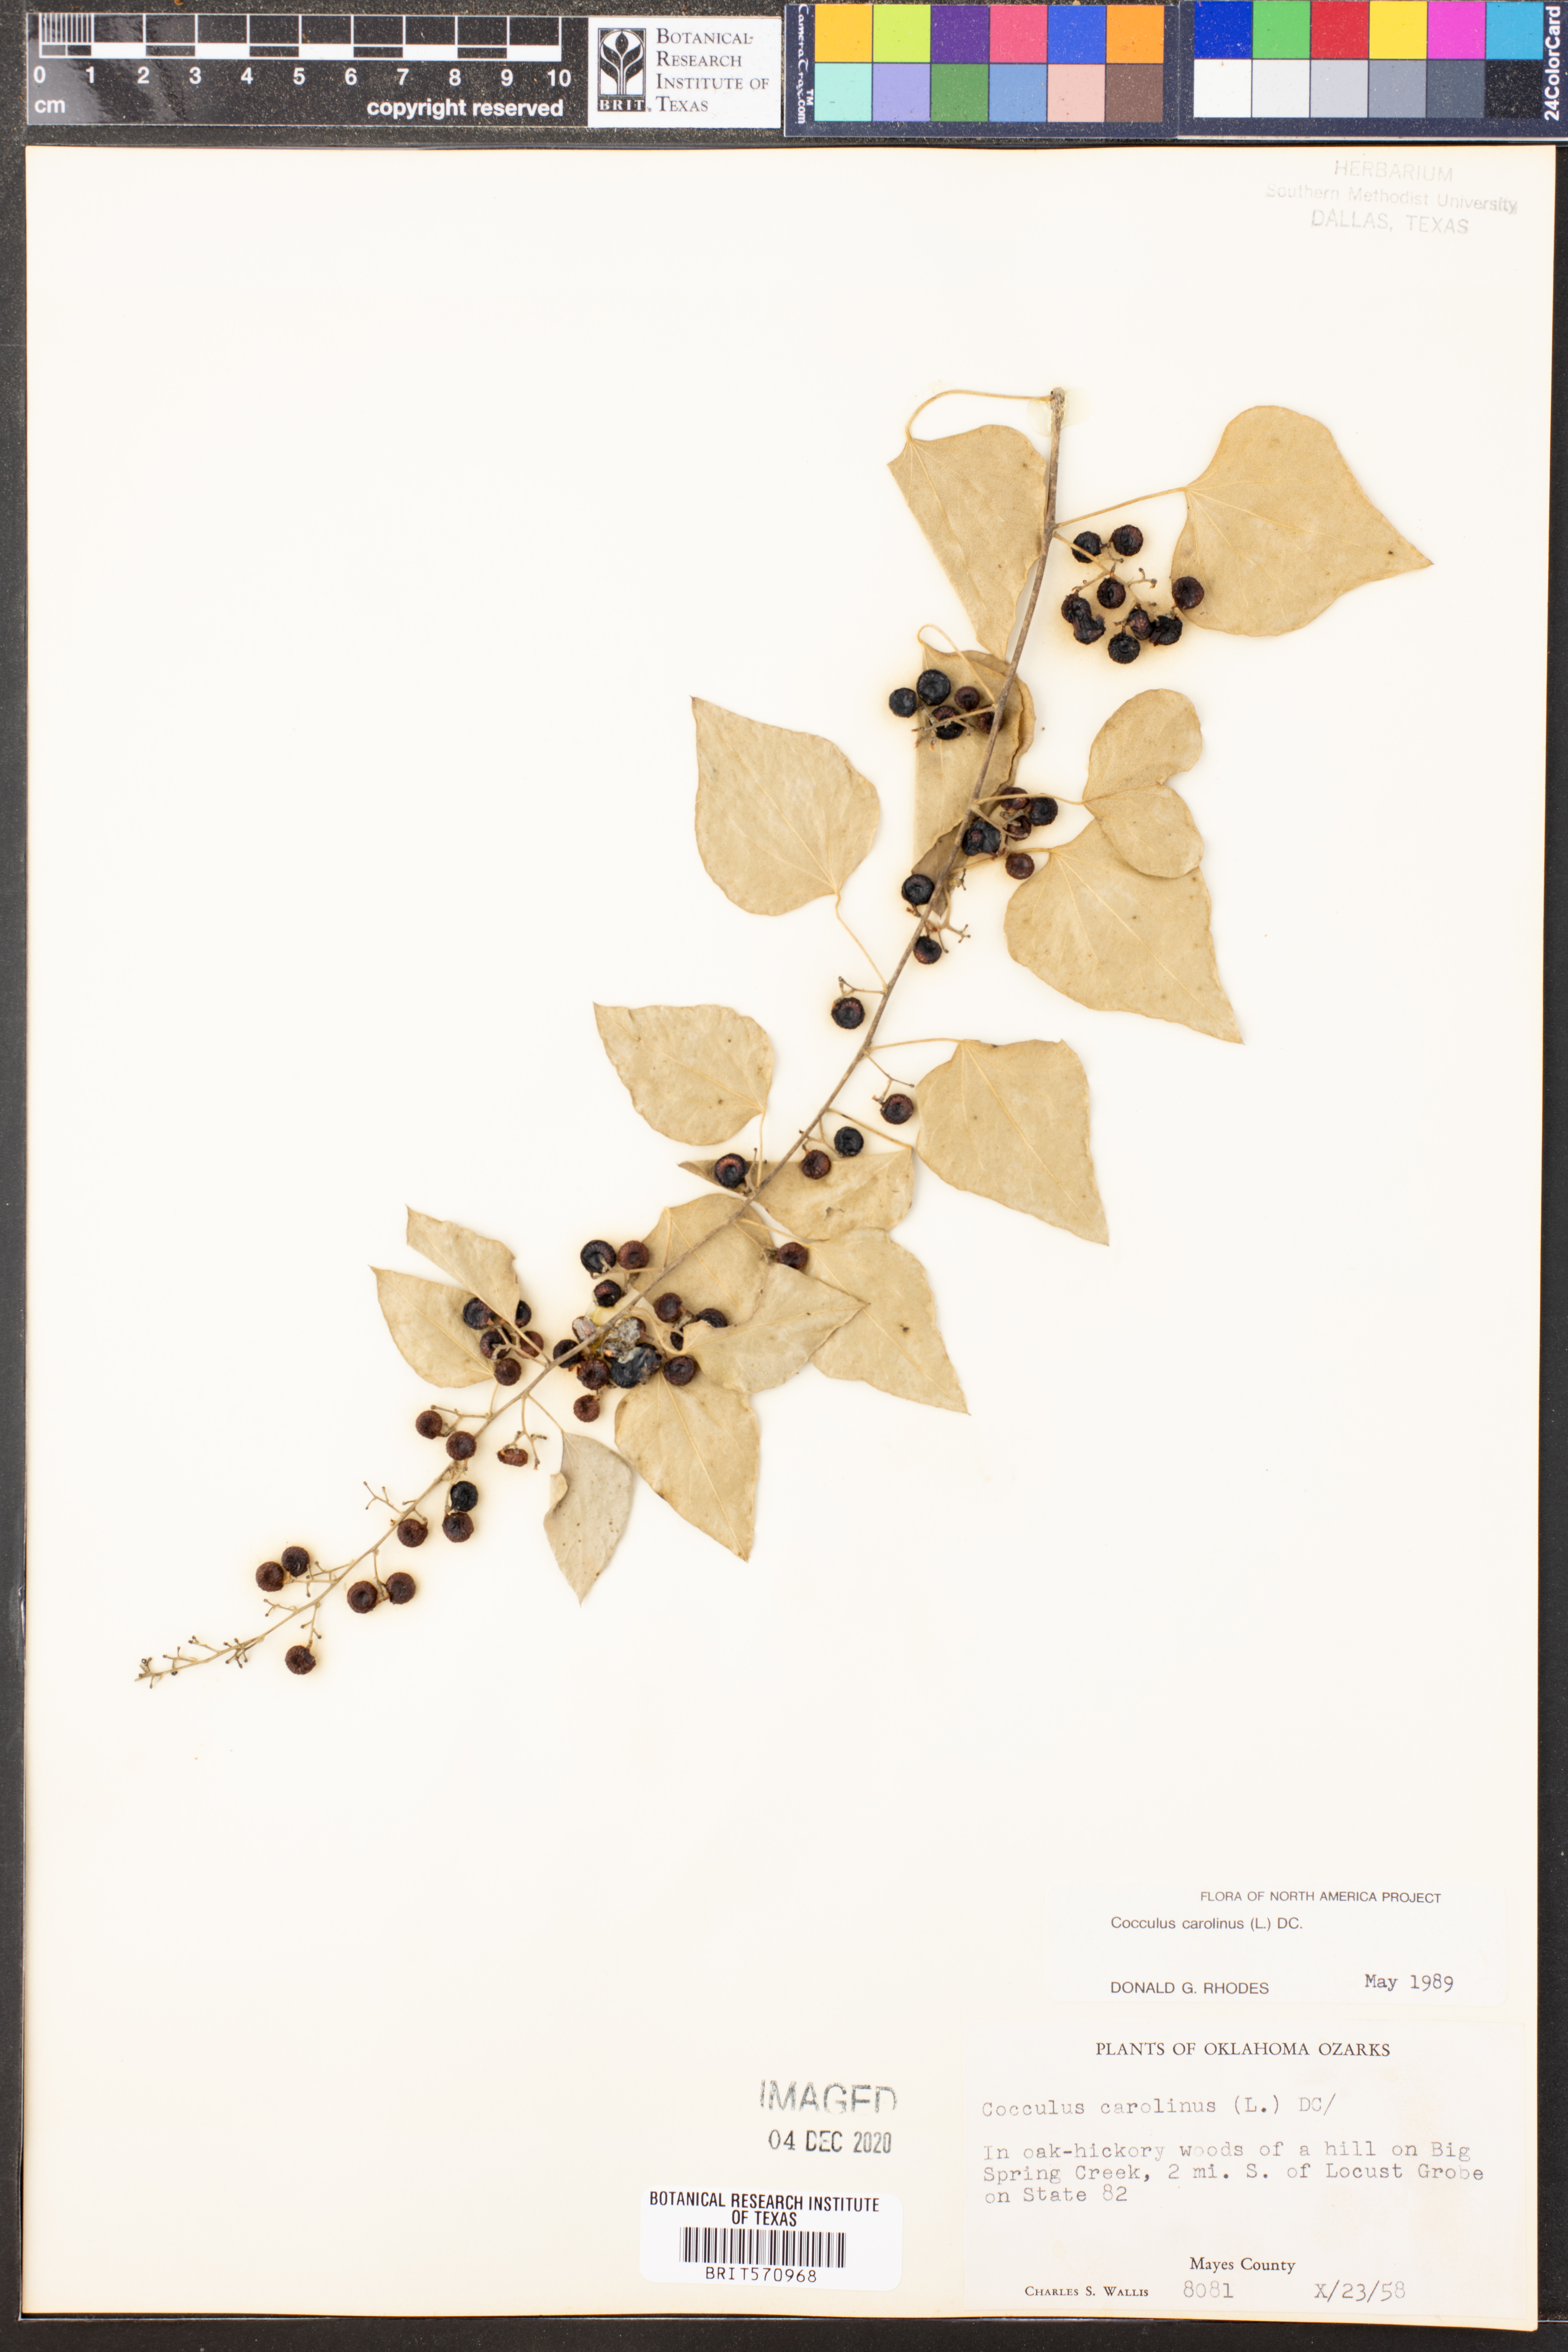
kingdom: Plantae
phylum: Tracheophyta
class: Magnoliopsida
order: Ranunculales
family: Menispermaceae
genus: Cocculus
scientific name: Cocculus carolinus
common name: Carolina moonseed
